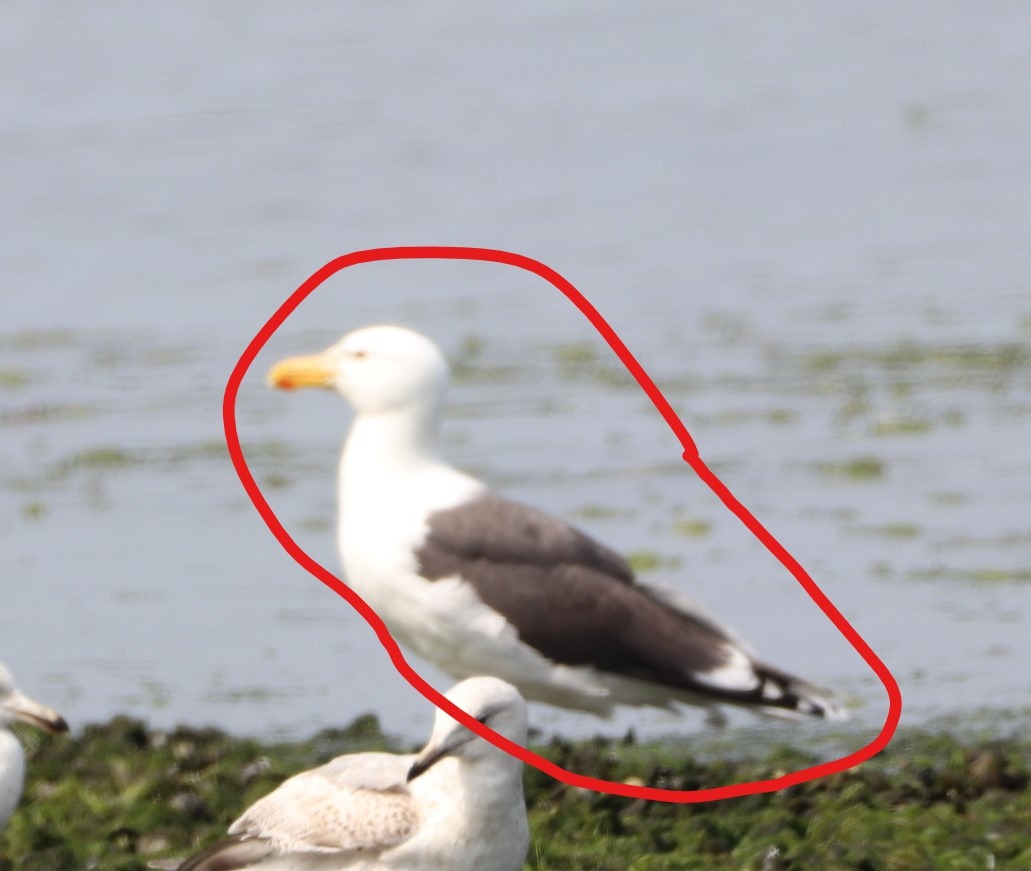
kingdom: Animalia
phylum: Chordata
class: Aves
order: Charadriiformes
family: Laridae
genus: Larus
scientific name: Larus marinus
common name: Svartbag
